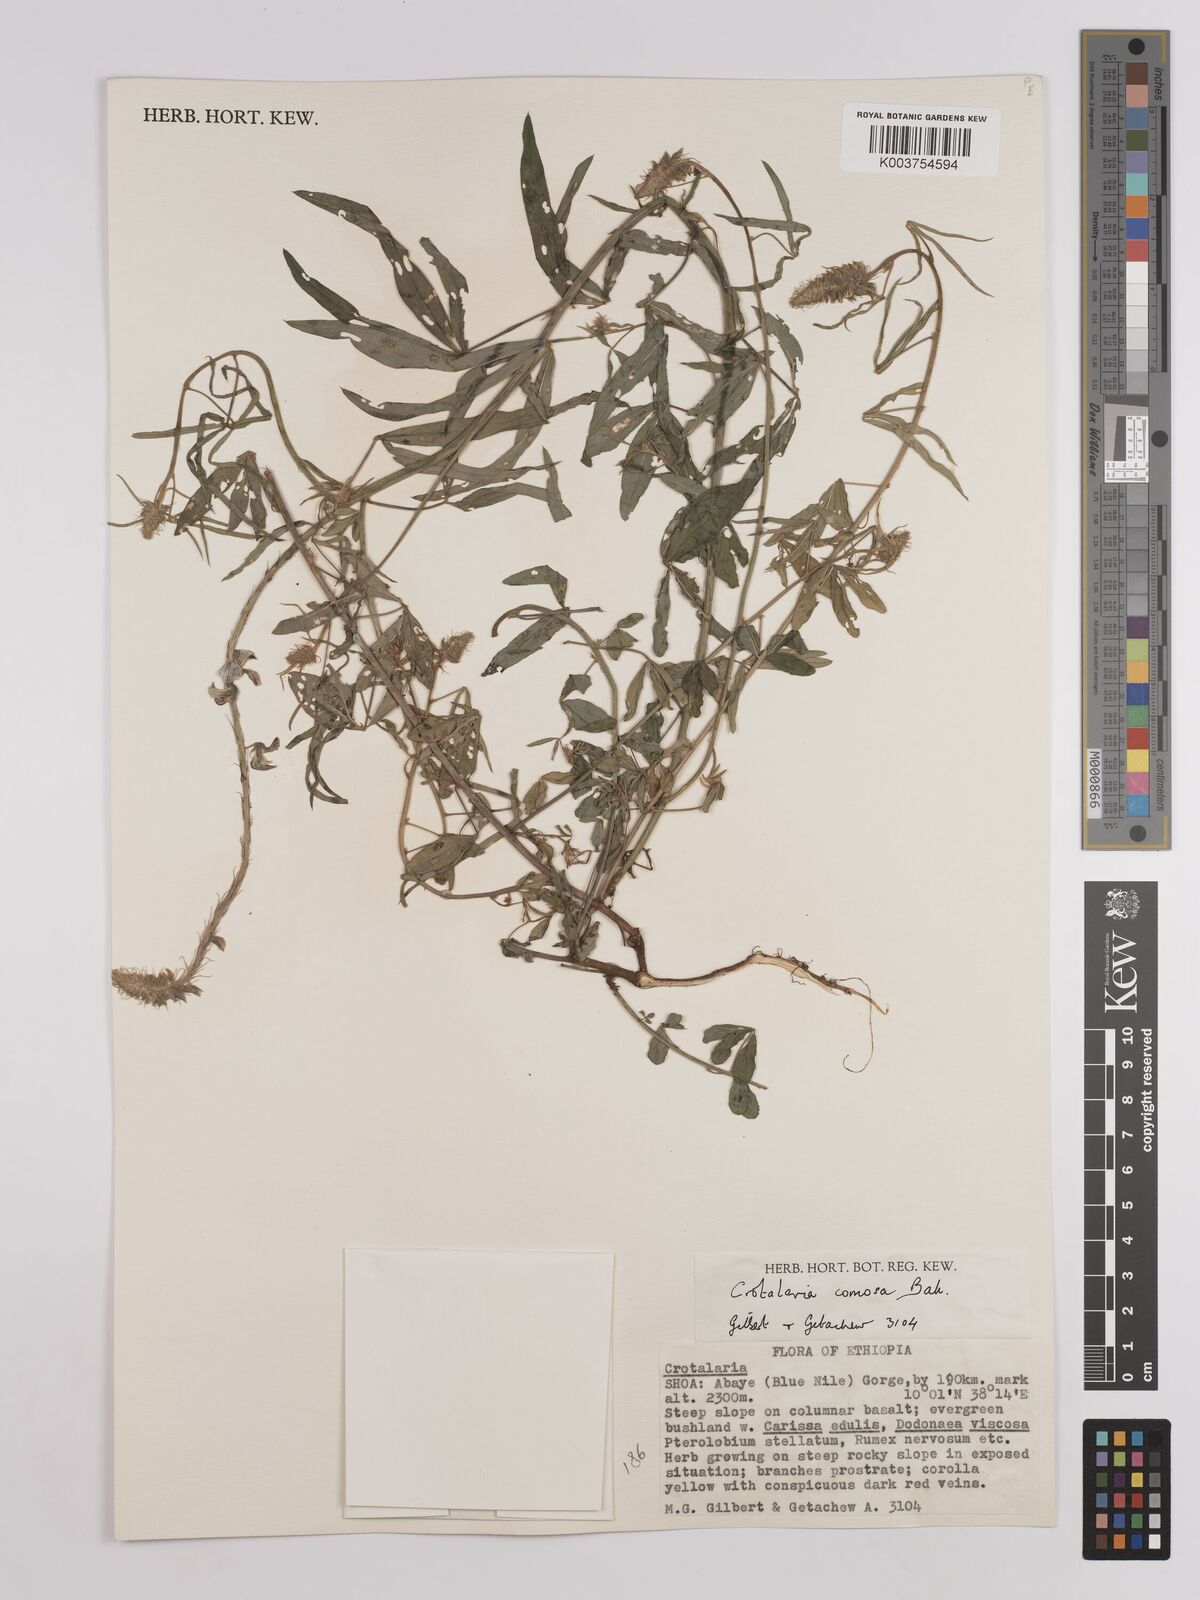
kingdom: Plantae
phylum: Tracheophyta
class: Magnoliopsida
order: Fabales
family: Fabaceae
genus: Crotalaria
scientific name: Crotalaria comosa
